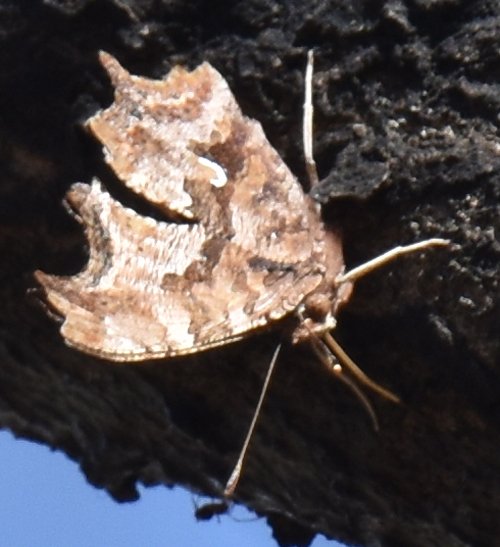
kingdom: Animalia
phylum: Arthropoda
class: Insecta
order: Lepidoptera
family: Nymphalidae
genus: Polygonia
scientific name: Polygonia comma
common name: Eastern Comma
